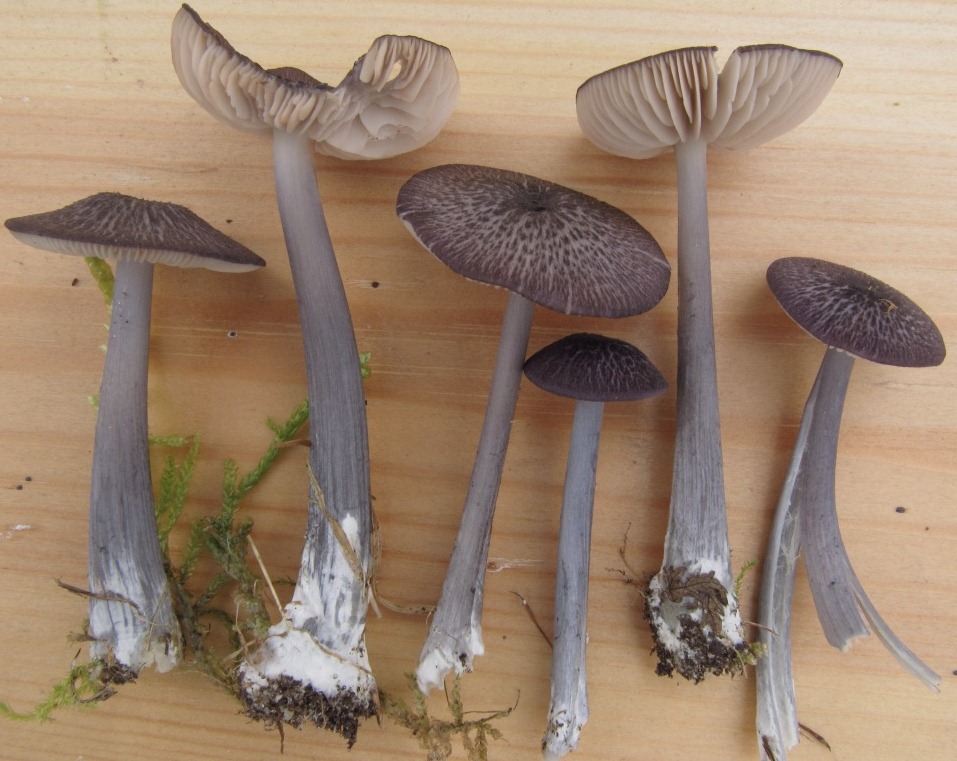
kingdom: Fungi
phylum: Basidiomycota
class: Agaricomycetes
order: Agaricales
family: Entolomataceae
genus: Entoloma
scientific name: Entoloma viiduense
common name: purpurbrun rødblad
